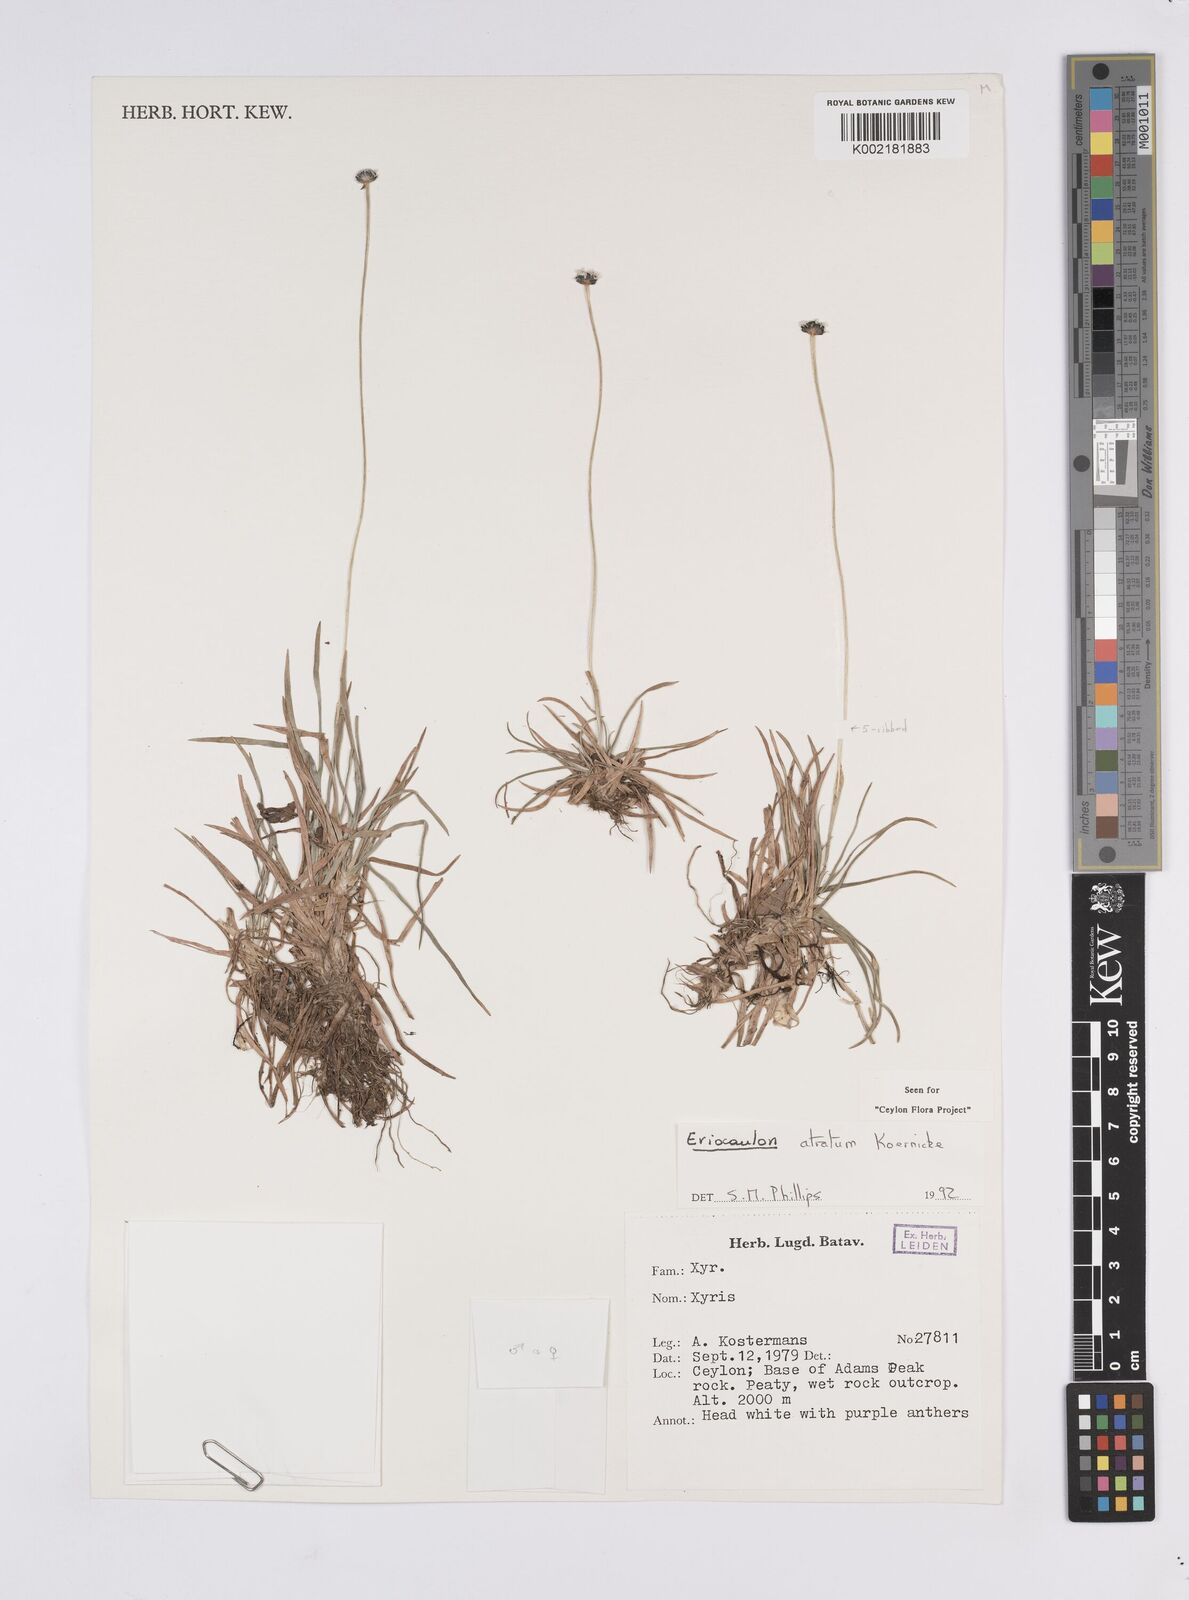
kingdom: Plantae
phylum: Tracheophyta
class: Liliopsida
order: Poales
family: Eriocaulaceae
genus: Eriocaulon
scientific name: Eriocaulon atratum
